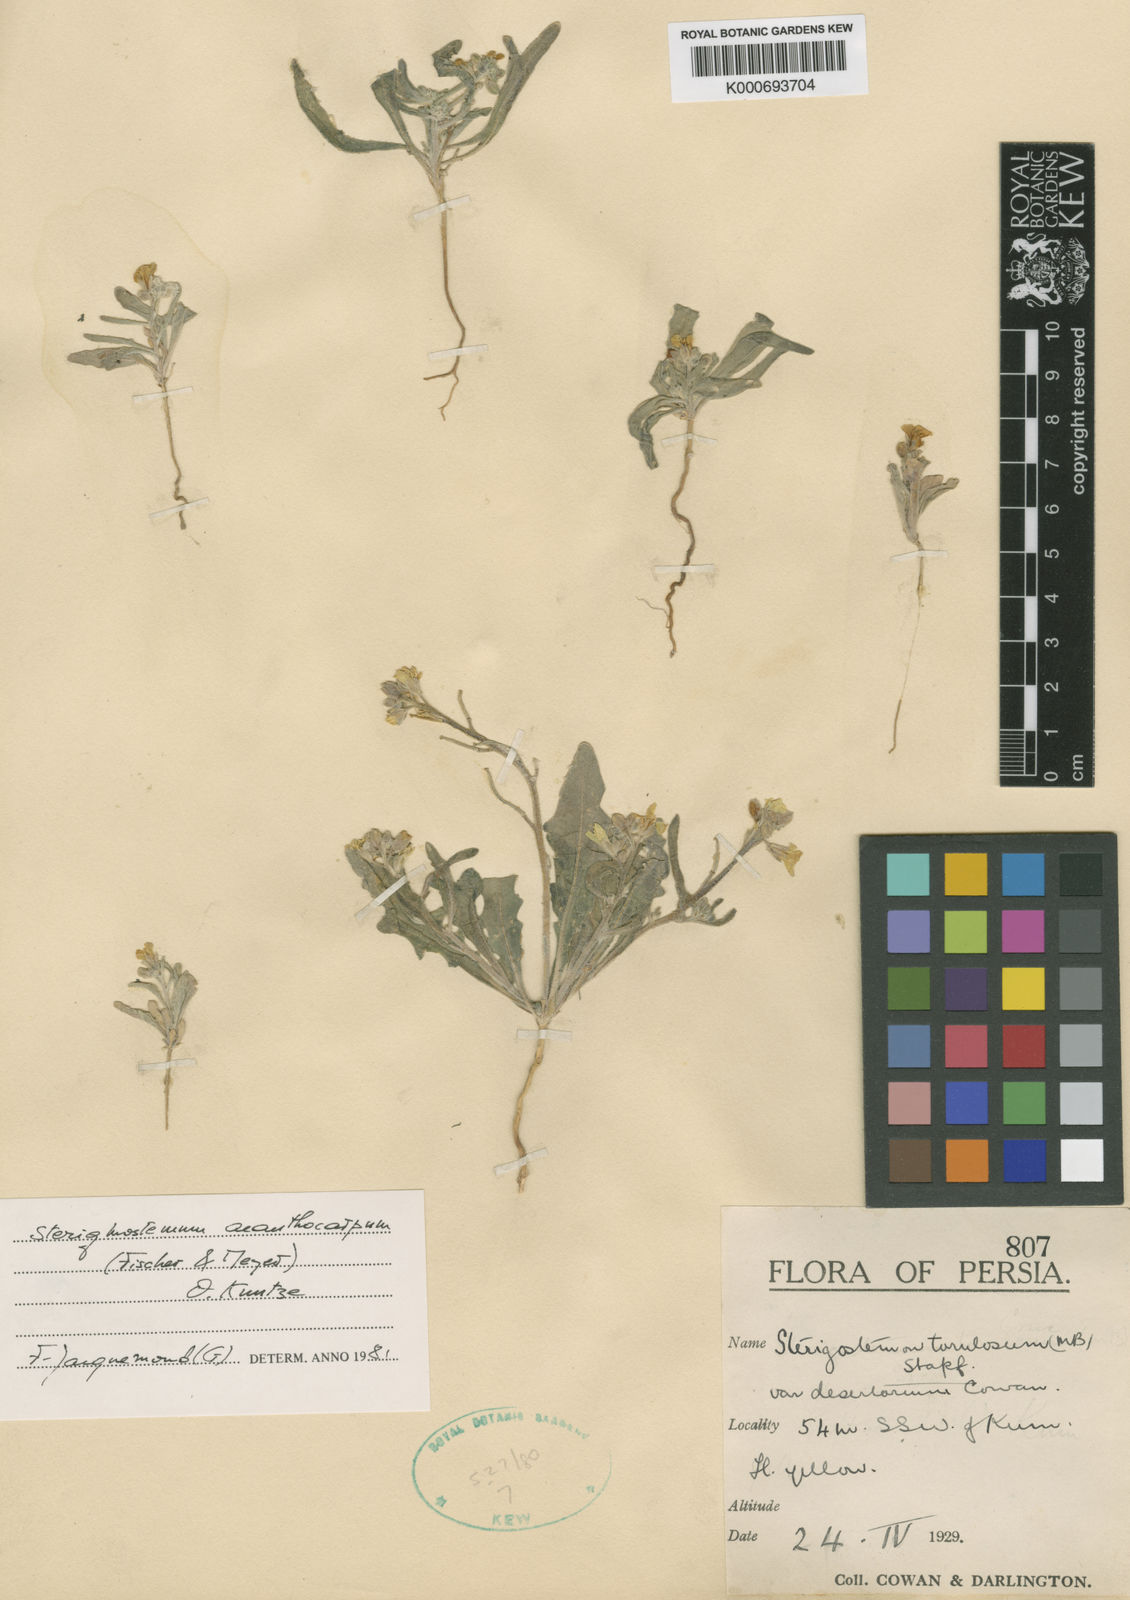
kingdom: Plantae
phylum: Tracheophyta
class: Magnoliopsida
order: Brassicales
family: Brassicaceae
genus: Sterigmostemum
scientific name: Sterigmostemum
